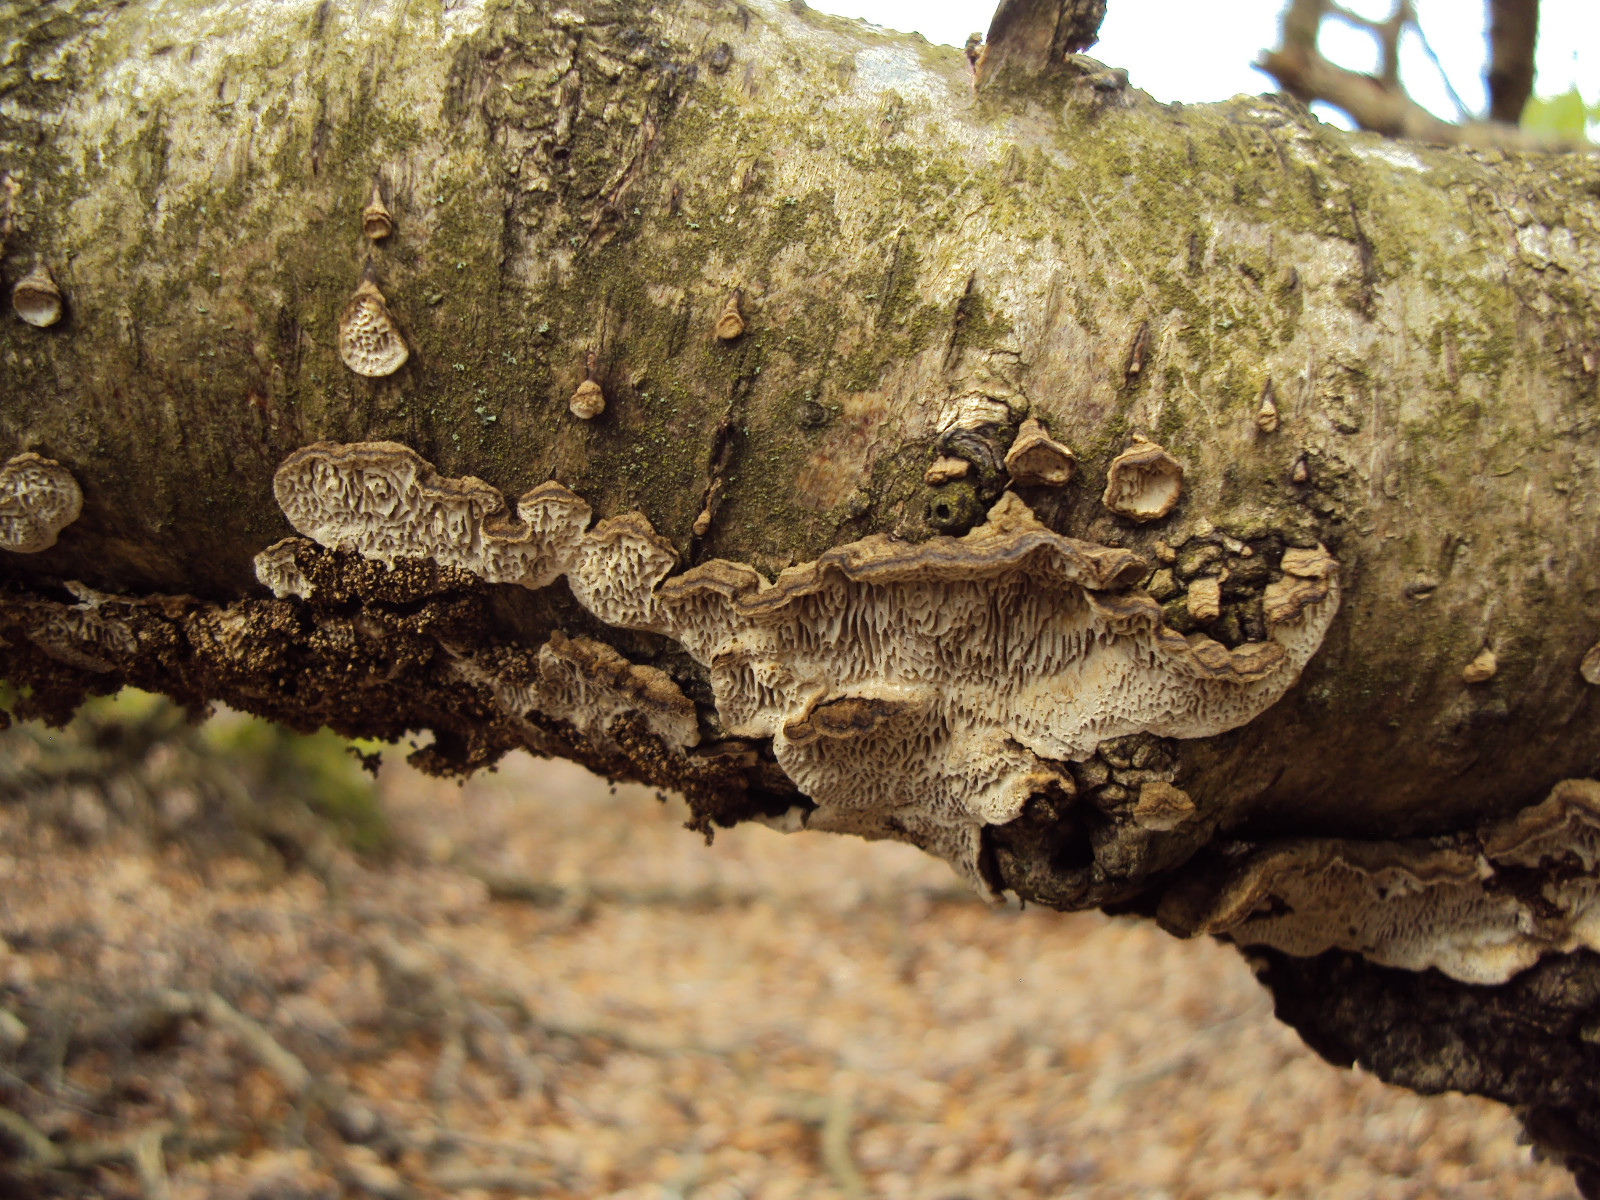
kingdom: Fungi
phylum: Basidiomycota
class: Agaricomycetes
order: Polyporales
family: Polyporaceae
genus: Podofomes
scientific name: Podofomes mollis
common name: blød begporesvamp
